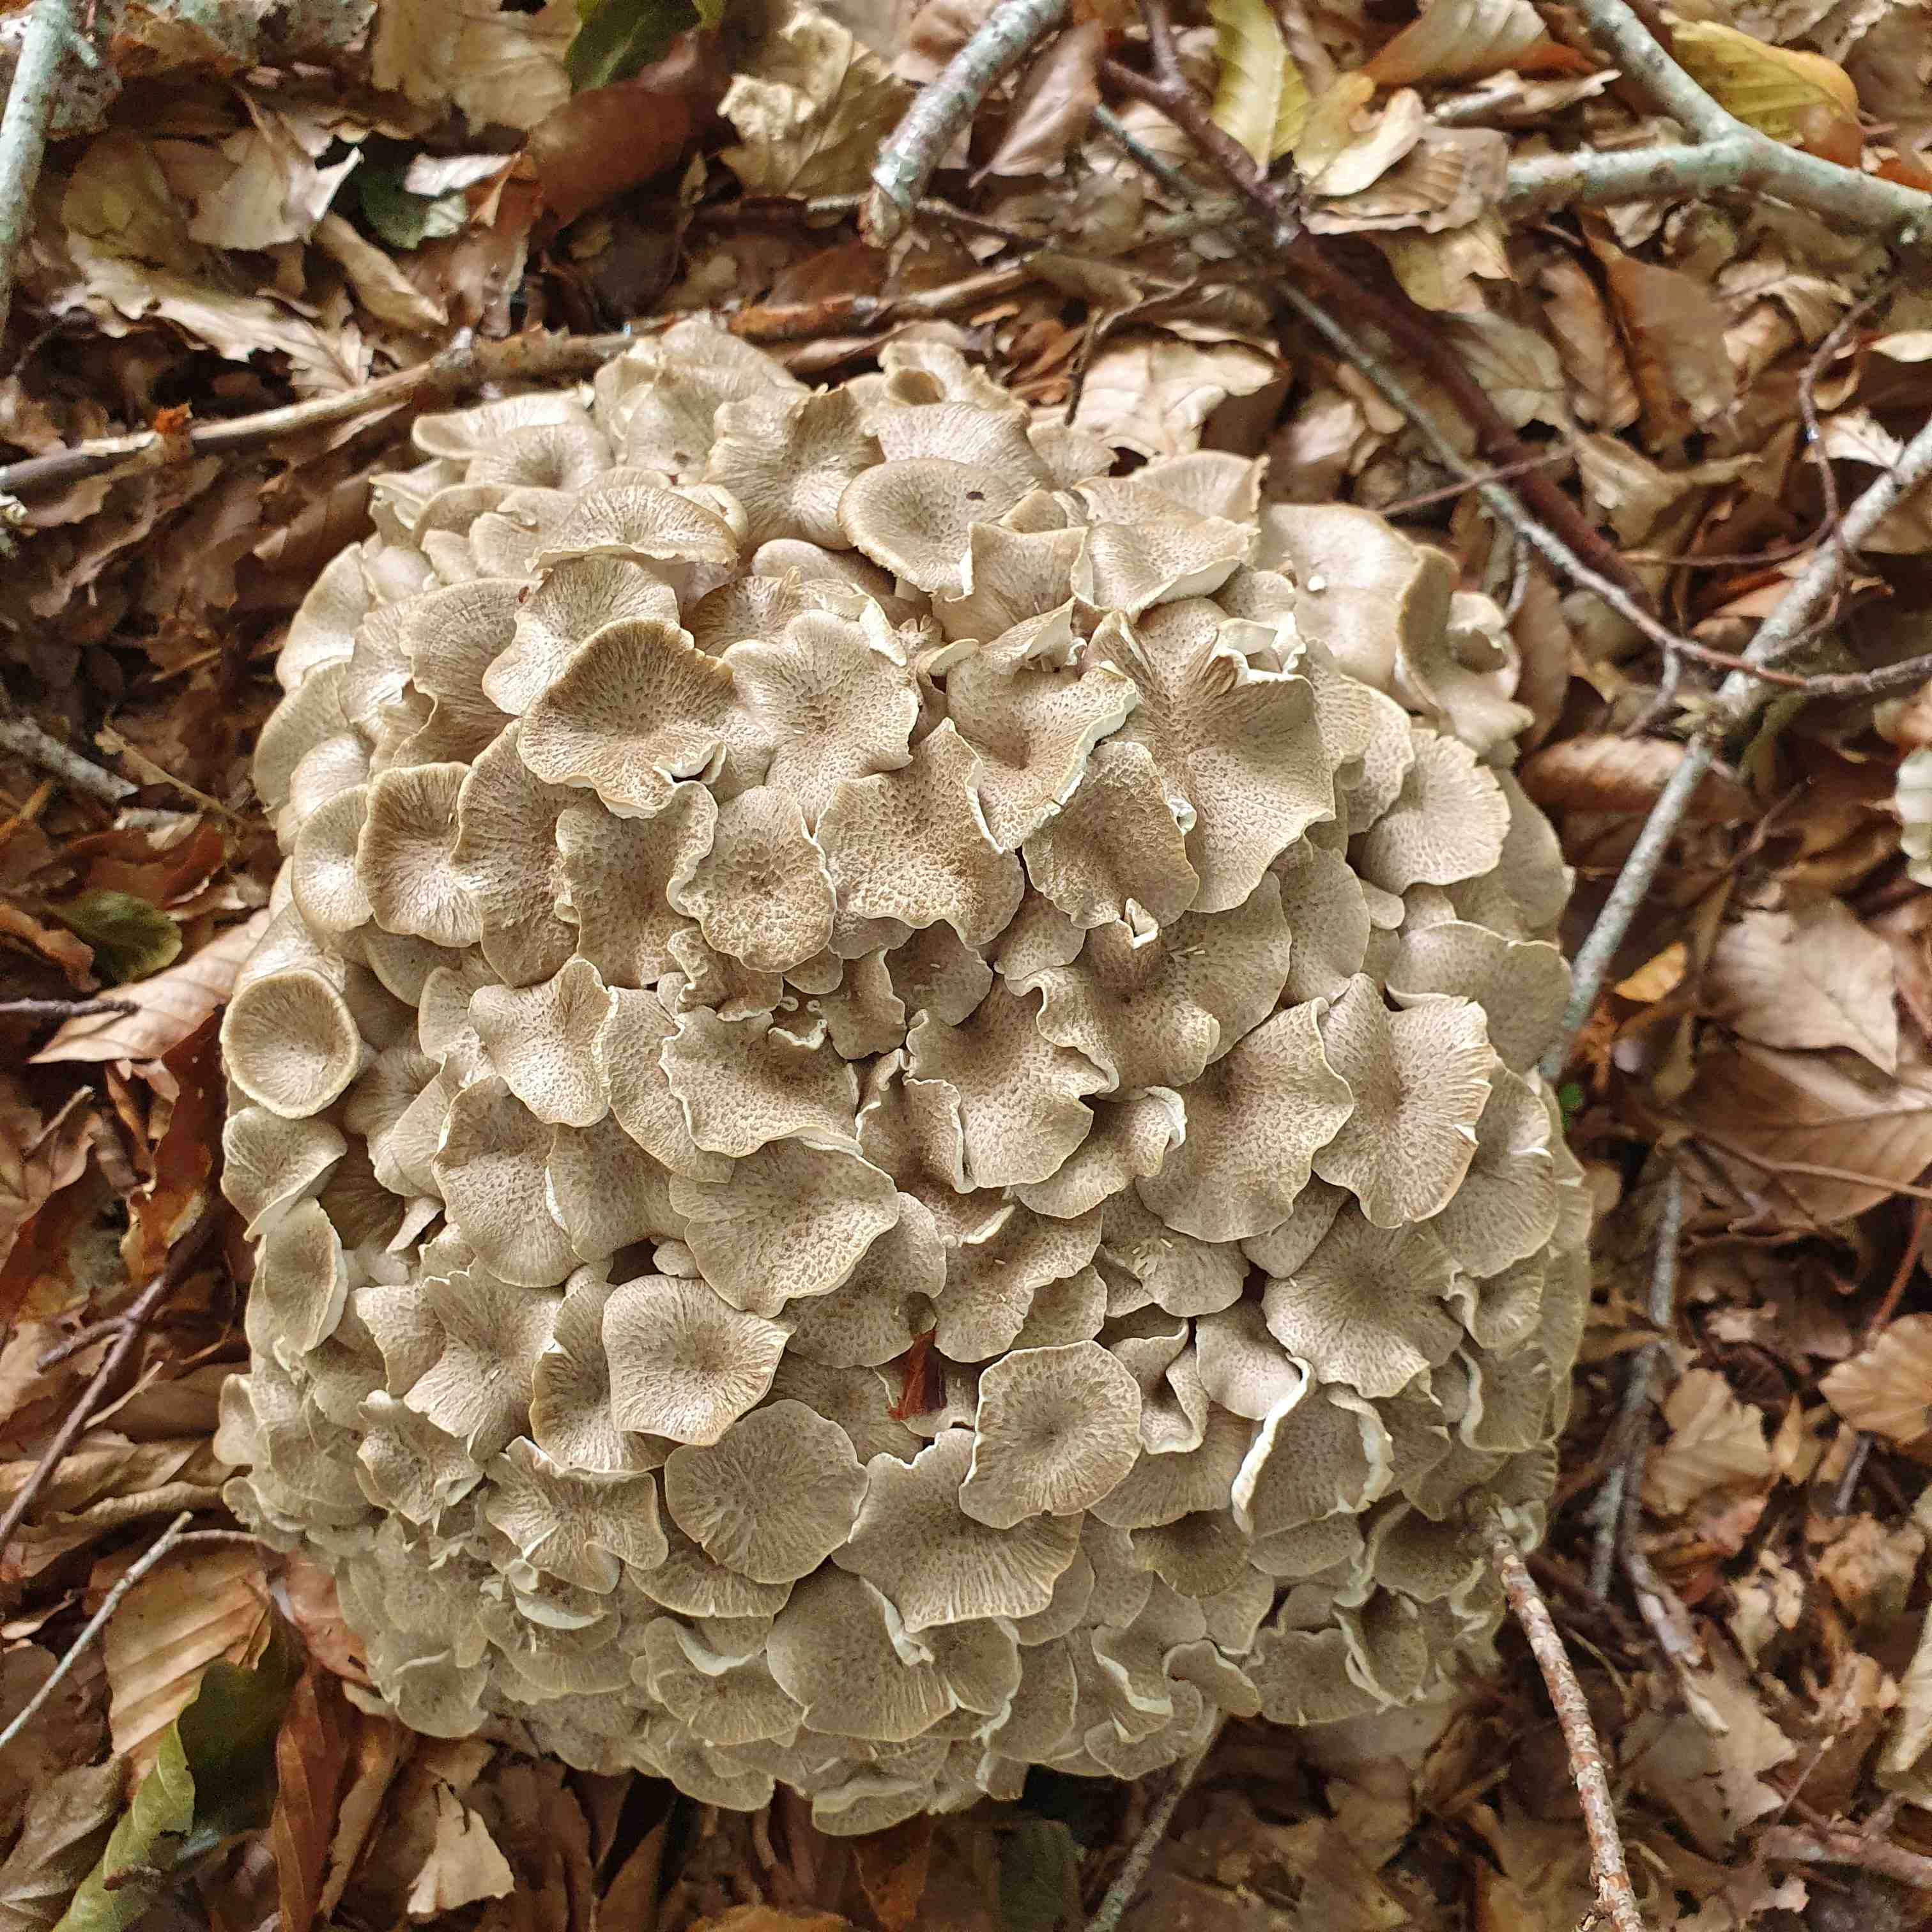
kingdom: Fungi
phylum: Basidiomycota
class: Agaricomycetes
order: Polyporales
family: Polyporaceae
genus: Polyporus
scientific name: Polyporus umbellatus
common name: skærmformet stilkporesvamp
